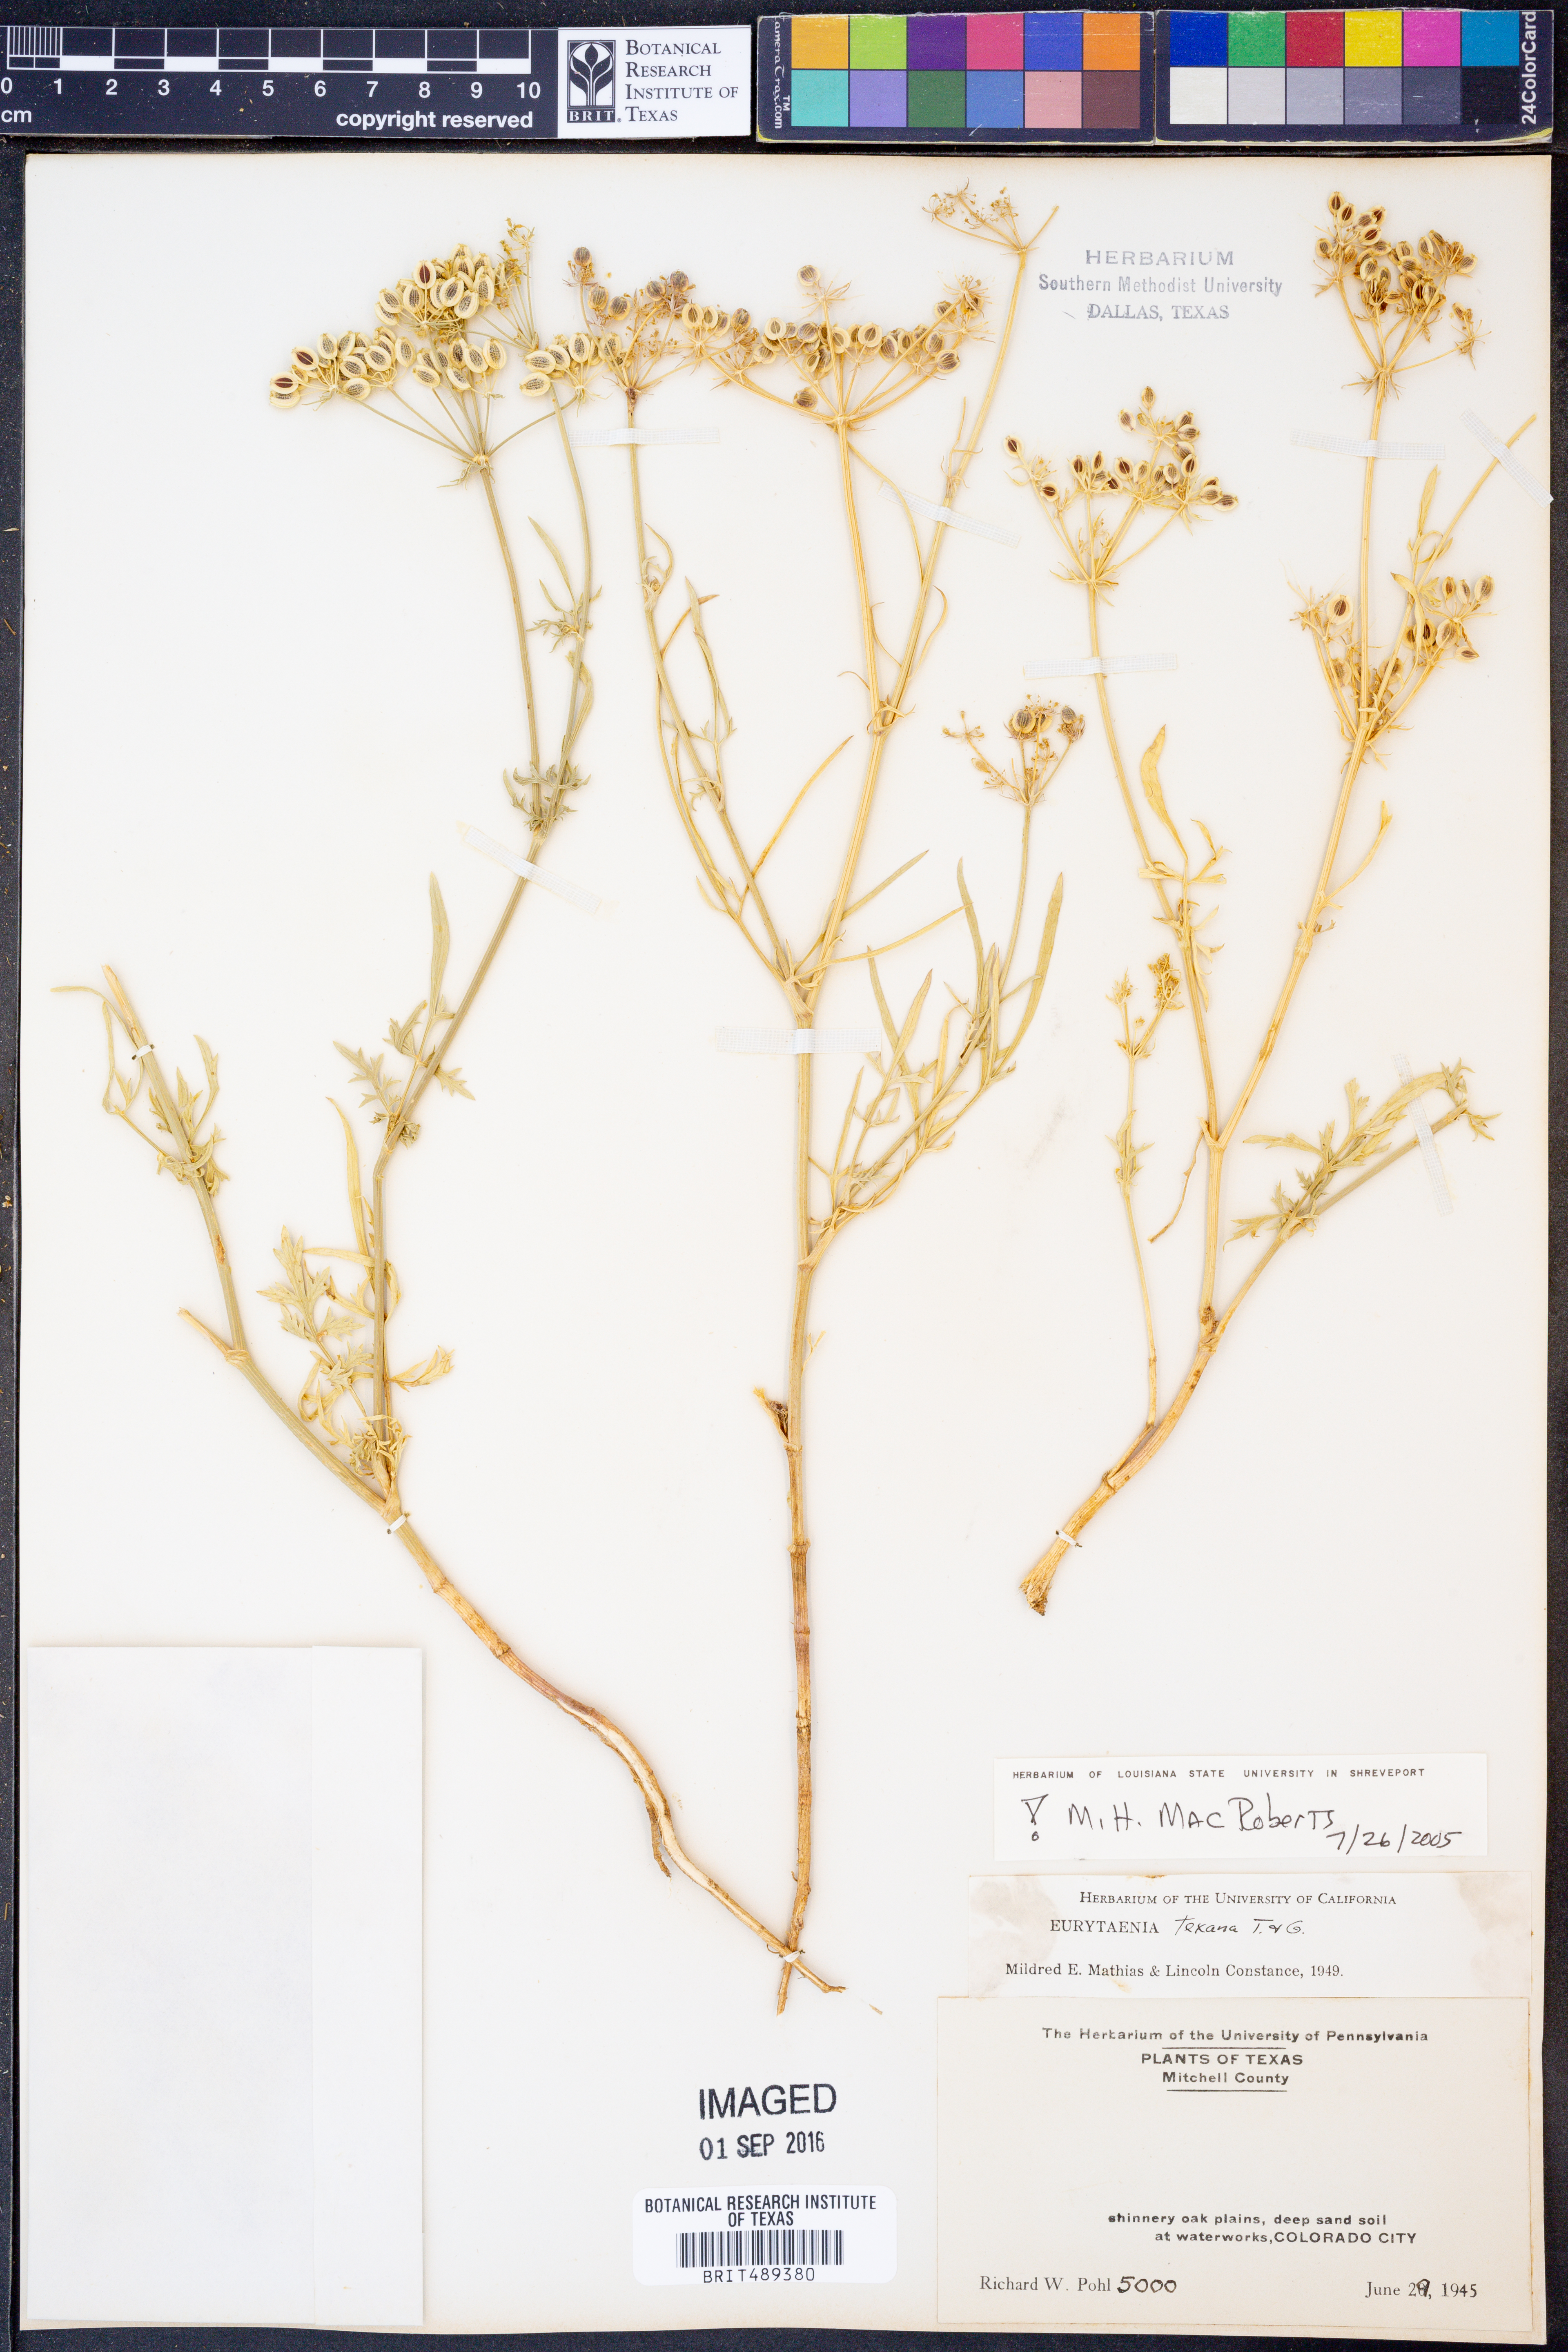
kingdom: Plantae
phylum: Tracheophyta
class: Magnoliopsida
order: Apiales
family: Apiaceae
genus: Eurytaenia
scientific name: Eurytaenia texana
